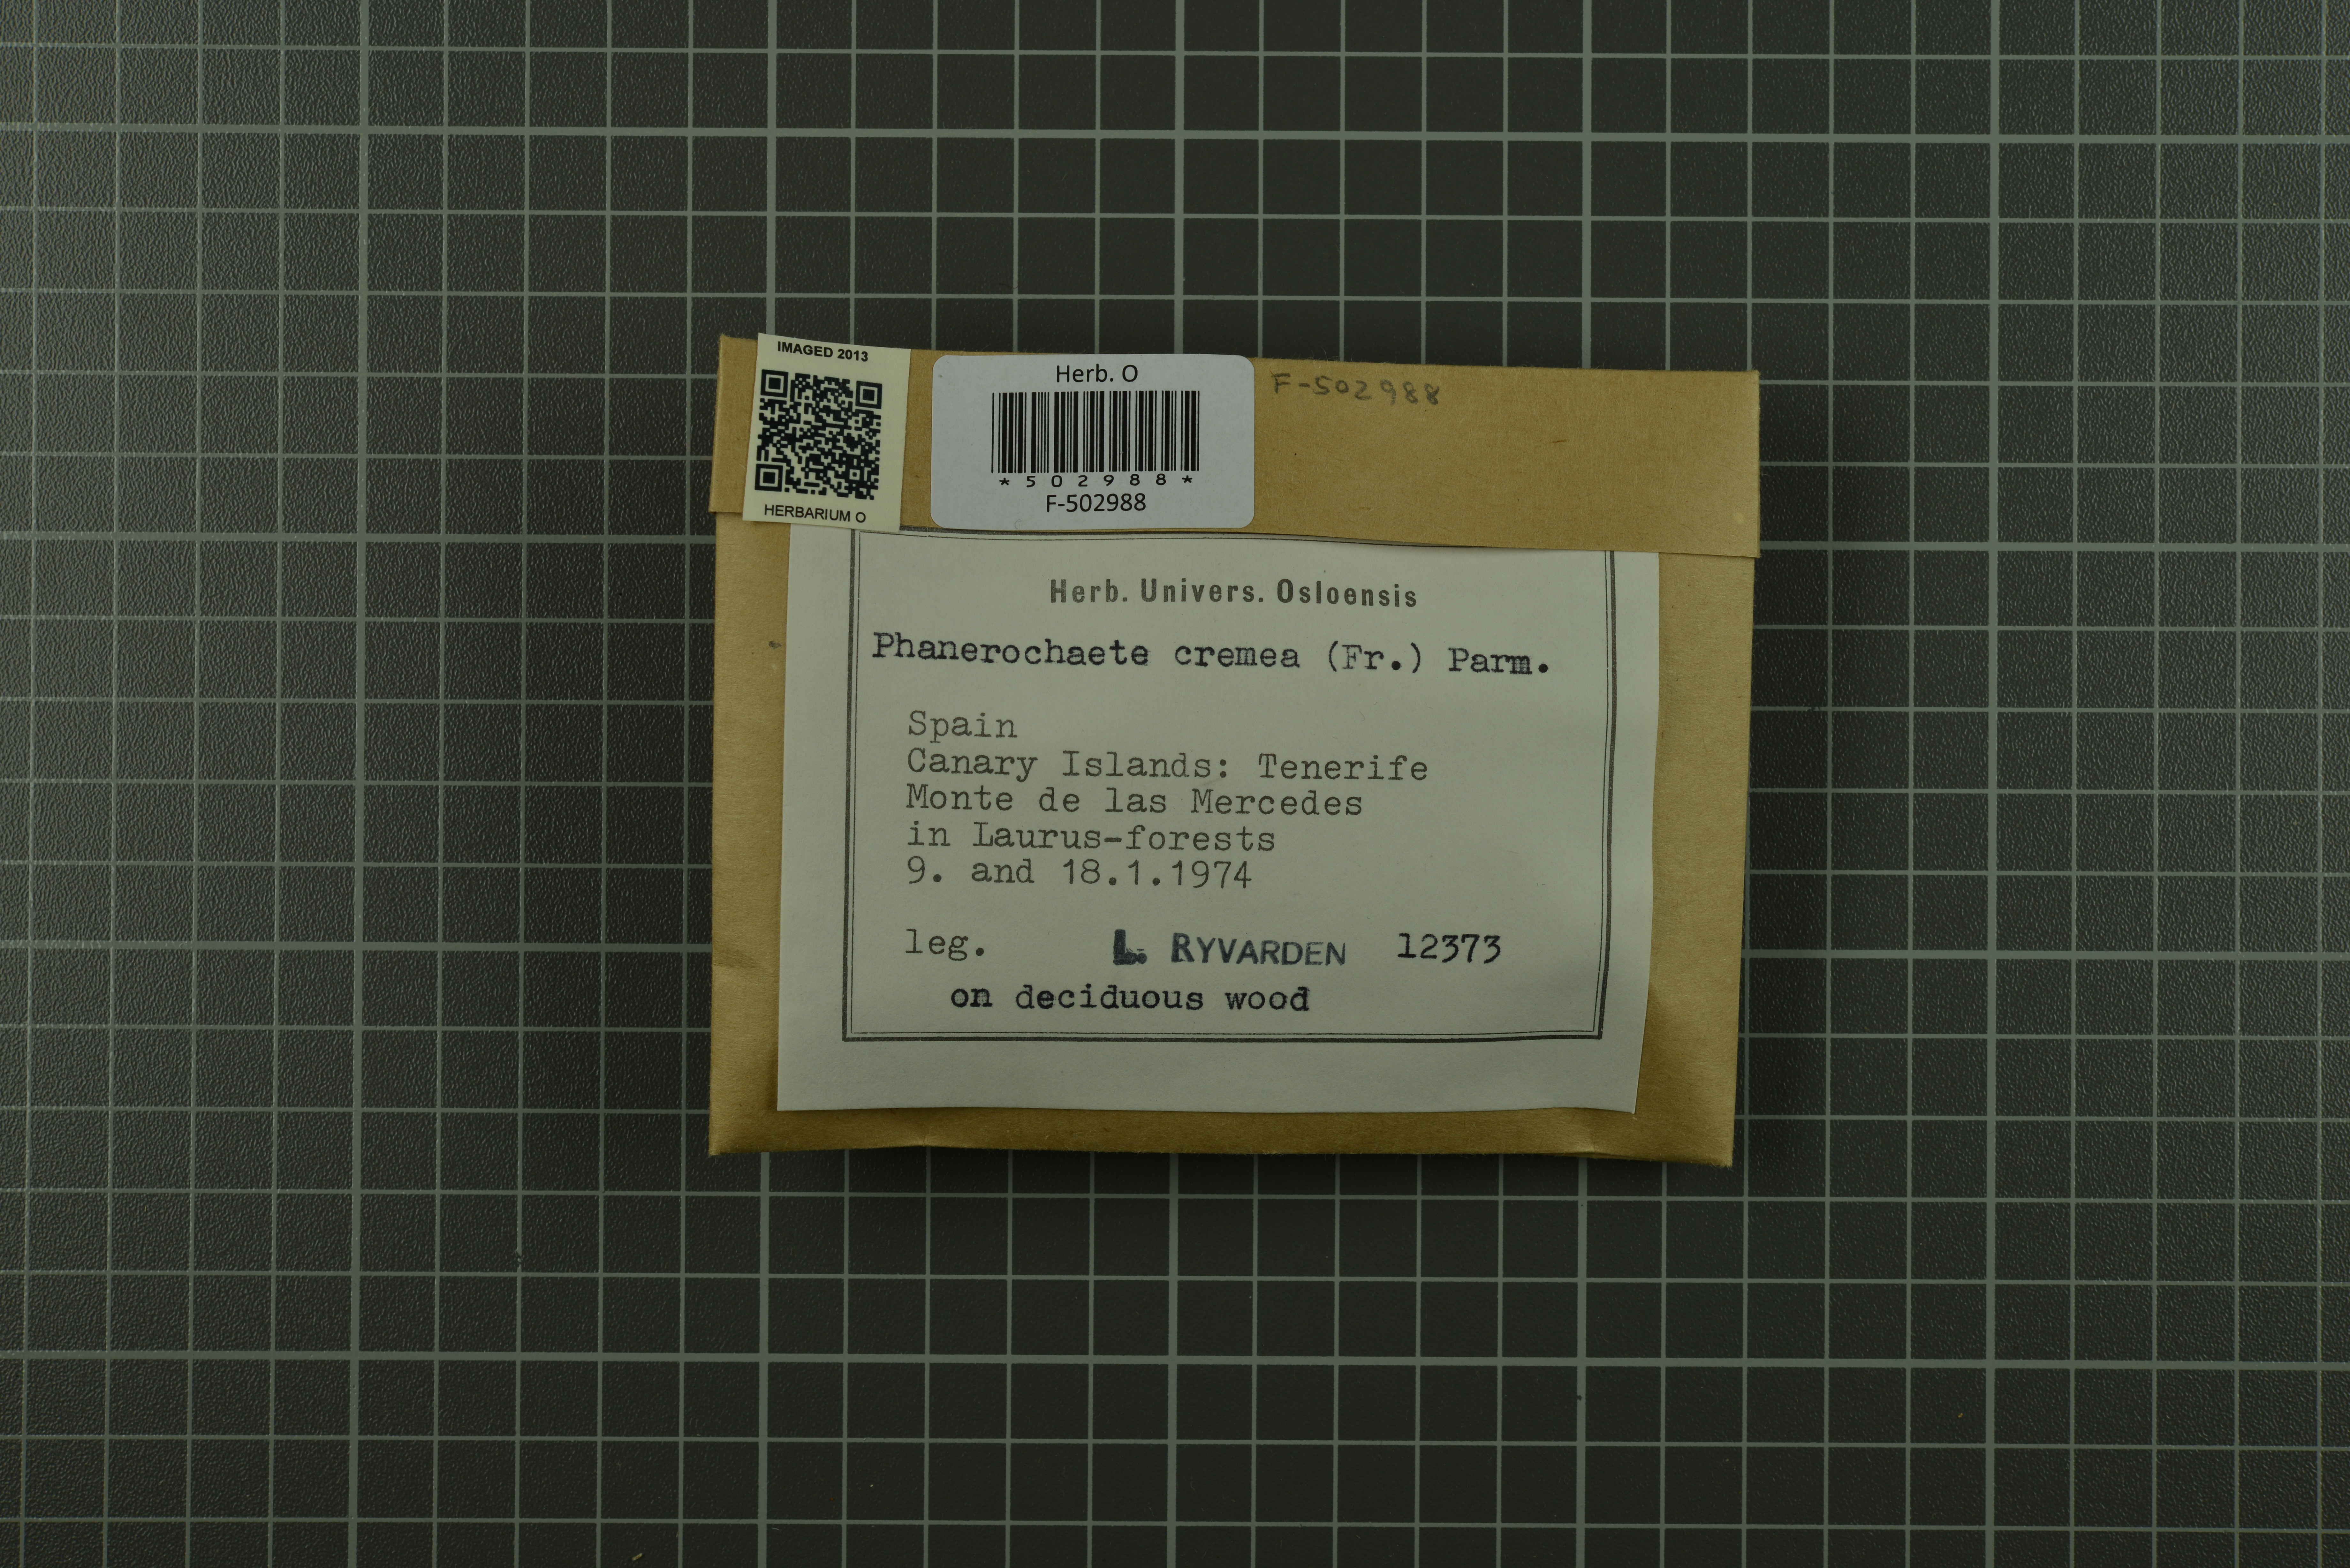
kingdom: Fungi
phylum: Basidiomycota
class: Agaricomycetes
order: Polyporales
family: Phanerochaetaceae
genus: Phanerochaete
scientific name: Phanerochaete sordida
